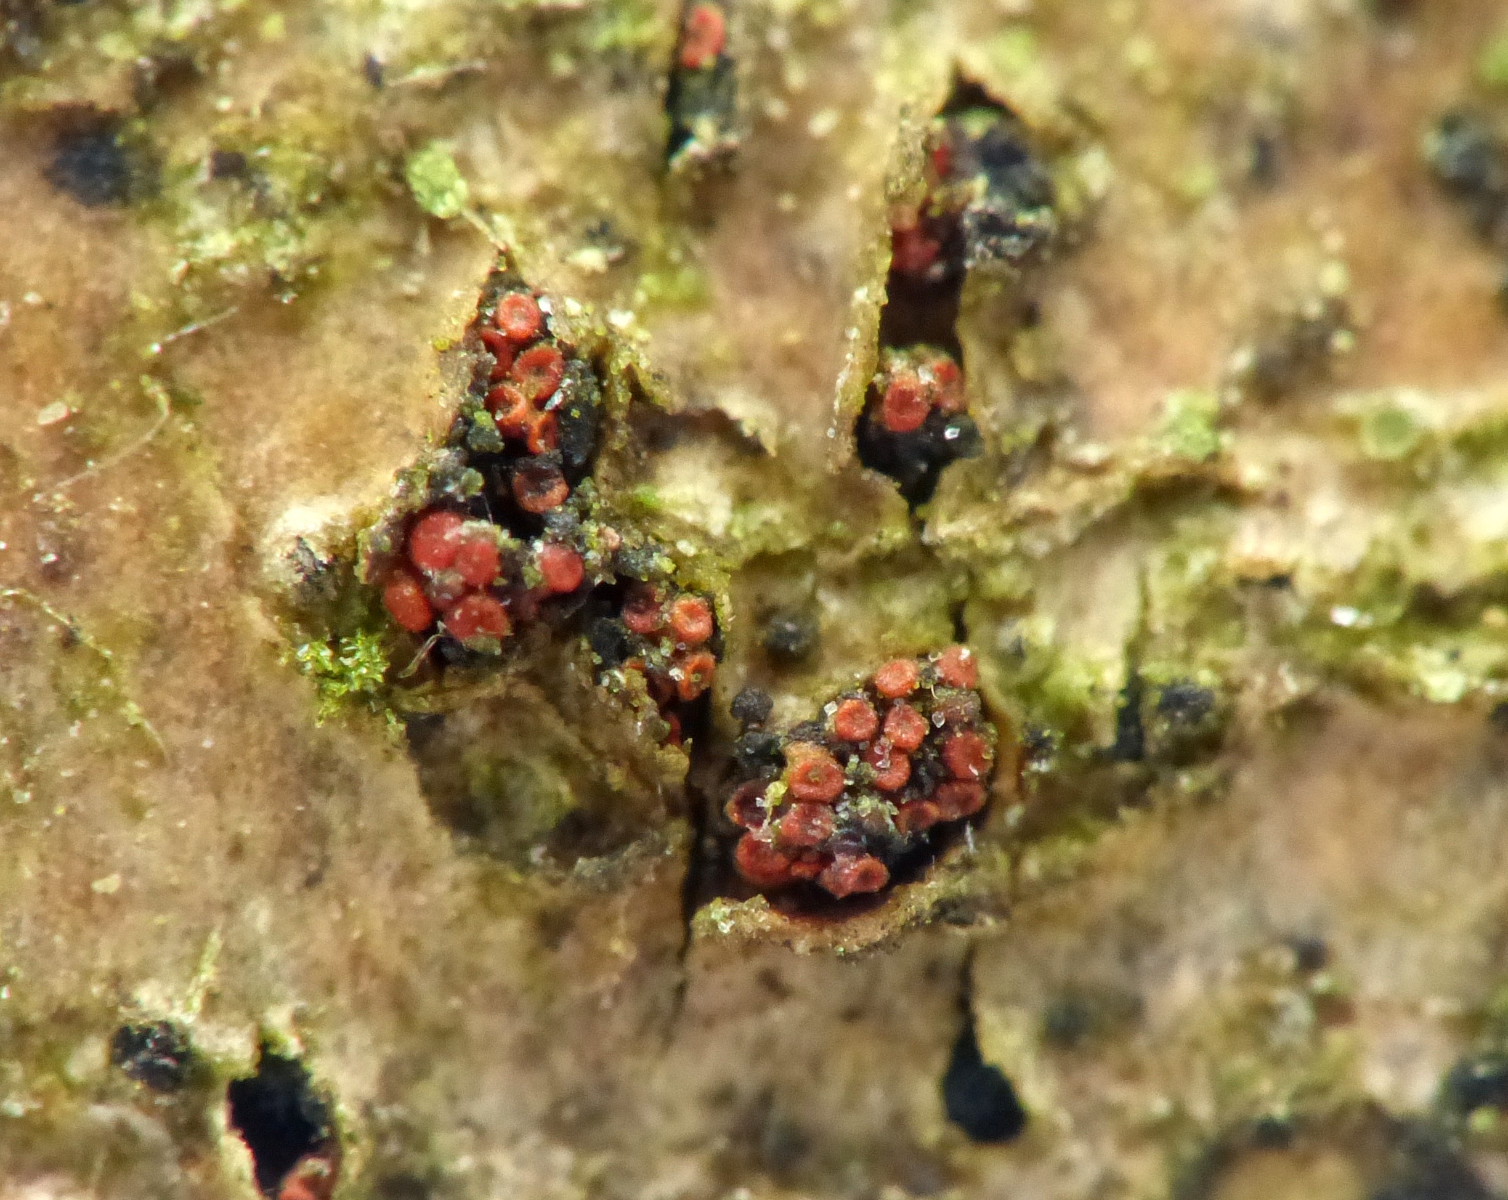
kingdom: Fungi
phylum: Ascomycota
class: Sordariomycetes
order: Hypocreales
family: Nectriaceae
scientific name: Nectriaceae
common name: cinnobersvampfamilien
